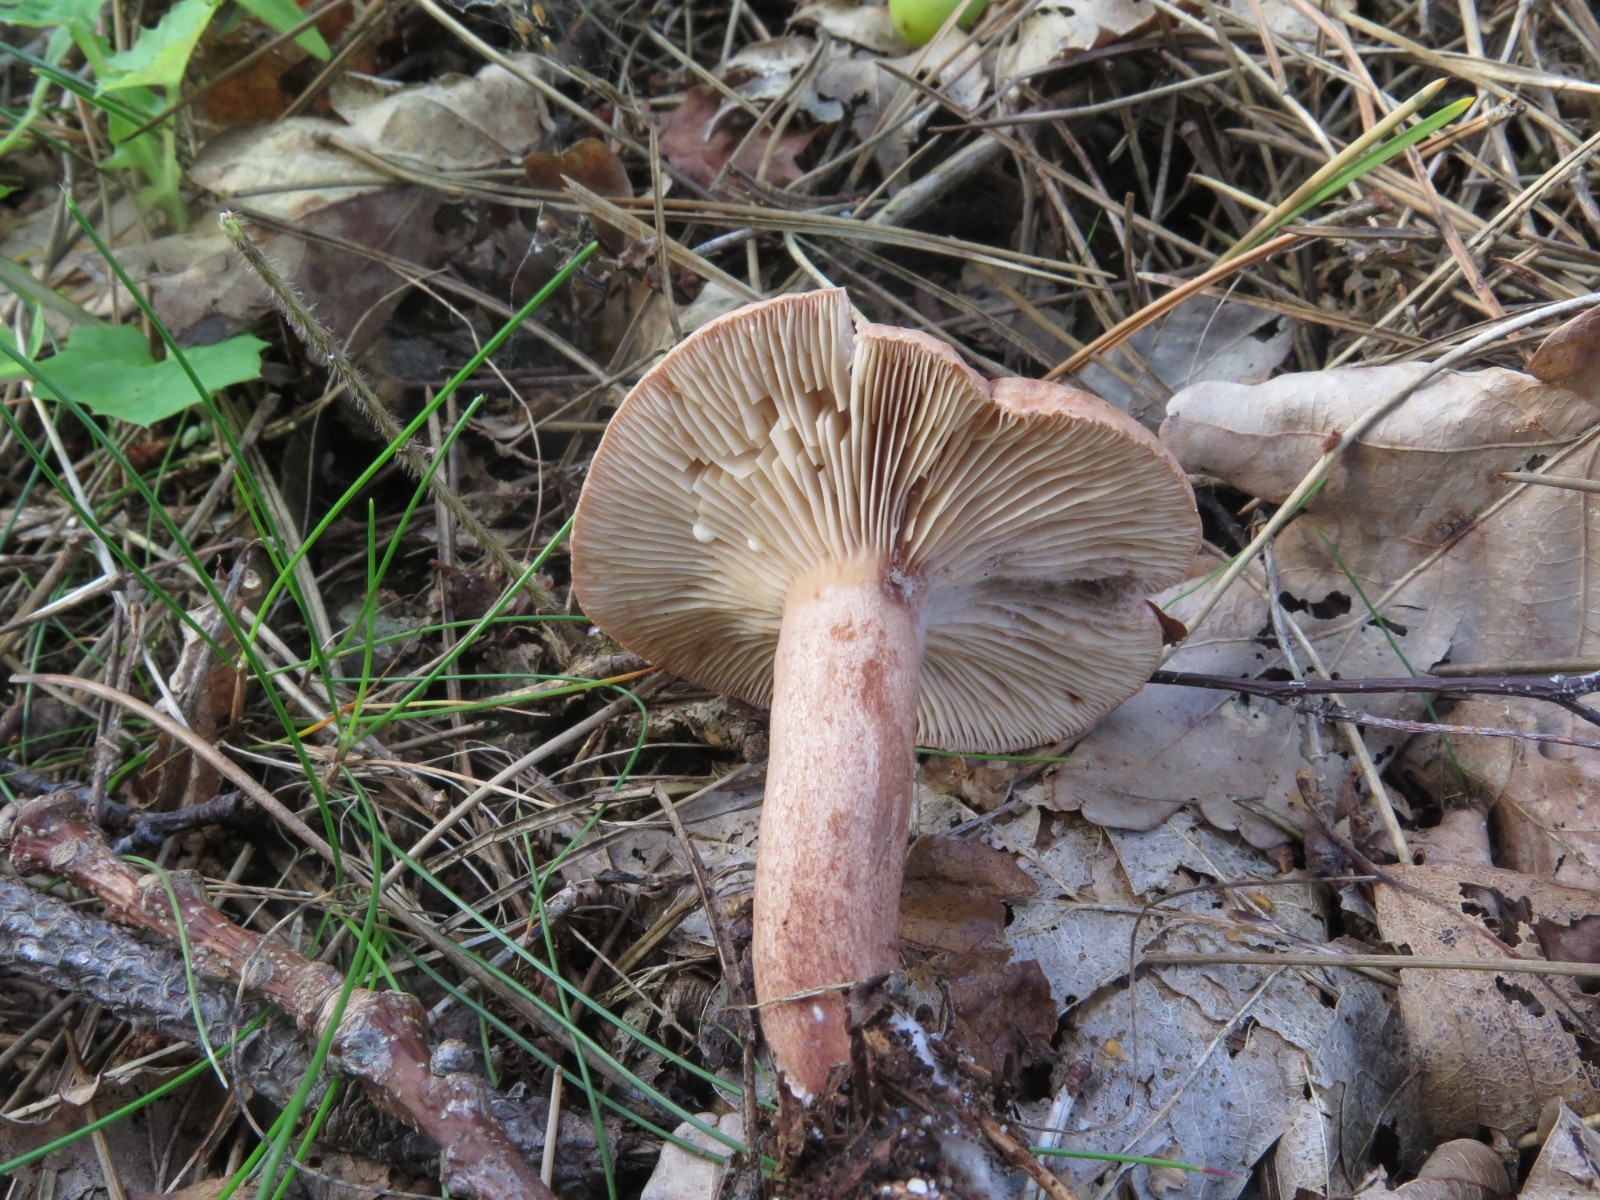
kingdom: Fungi
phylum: Basidiomycota
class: Agaricomycetes
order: Russulales
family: Russulaceae
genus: Lactarius
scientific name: Lactarius quietus
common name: ege-mælkehat
